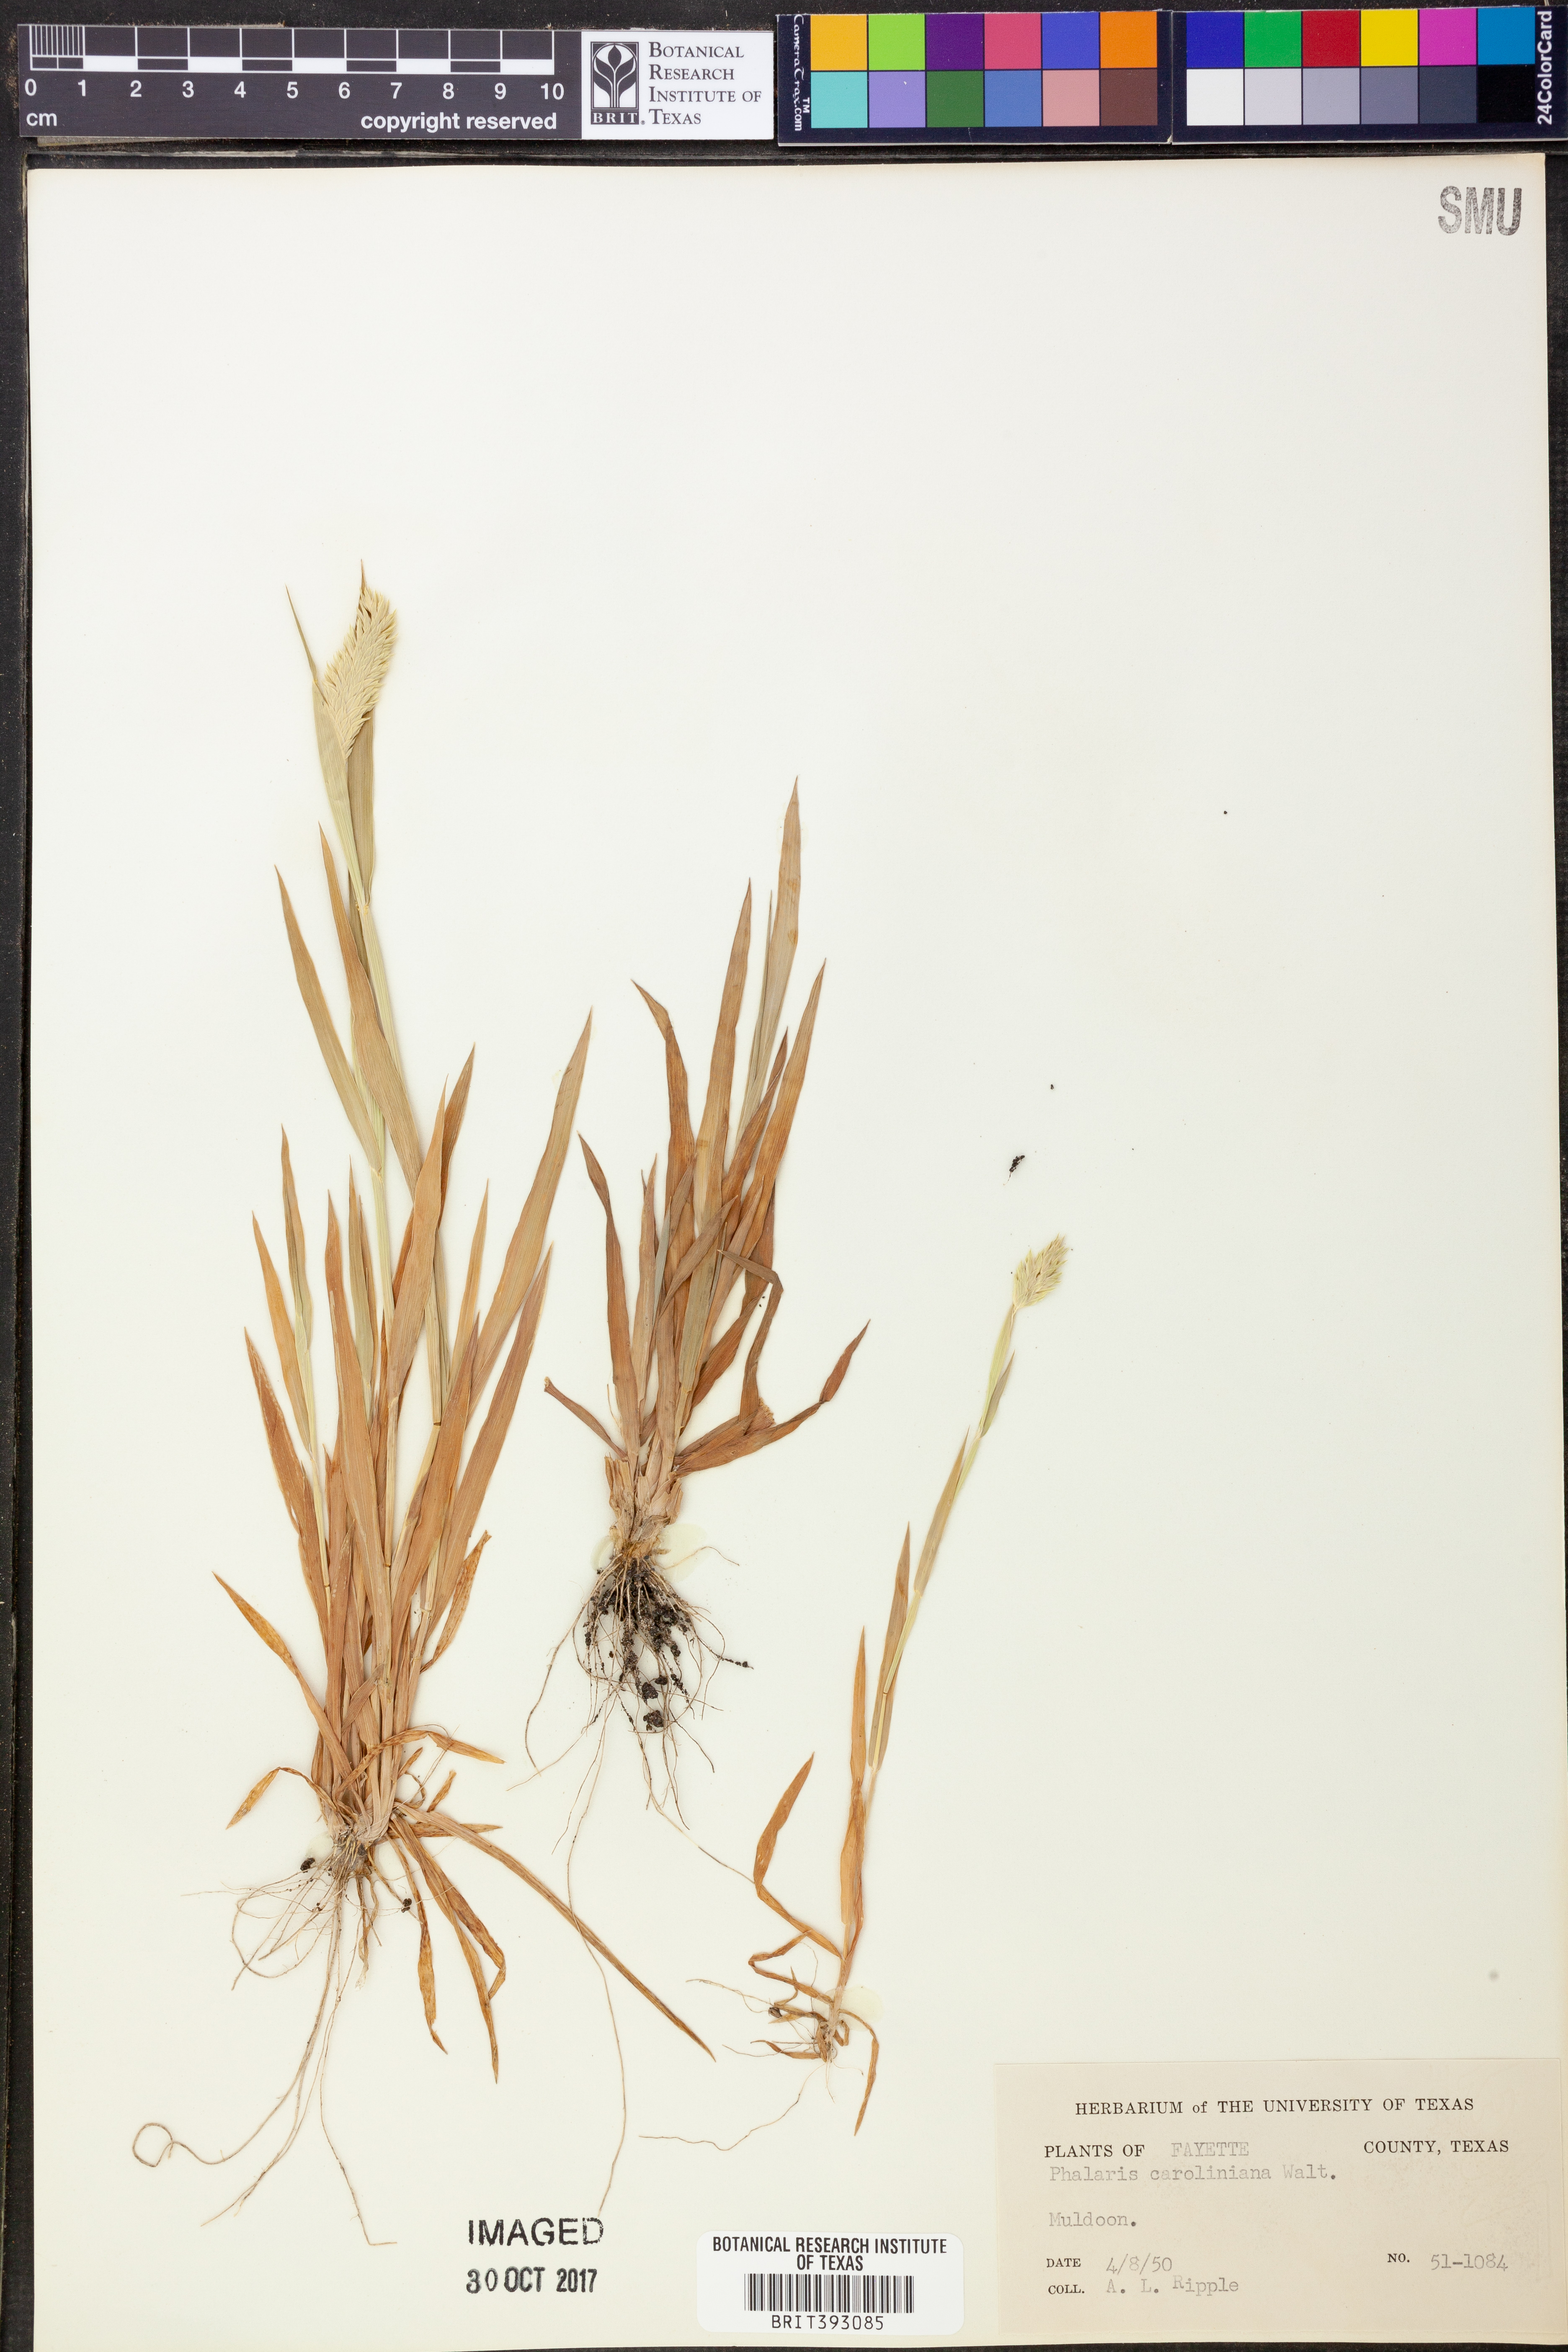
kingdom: Plantae
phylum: Tracheophyta
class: Liliopsida
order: Poales
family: Poaceae
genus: Phalaris
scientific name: Phalaris caroliniana
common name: May grass
